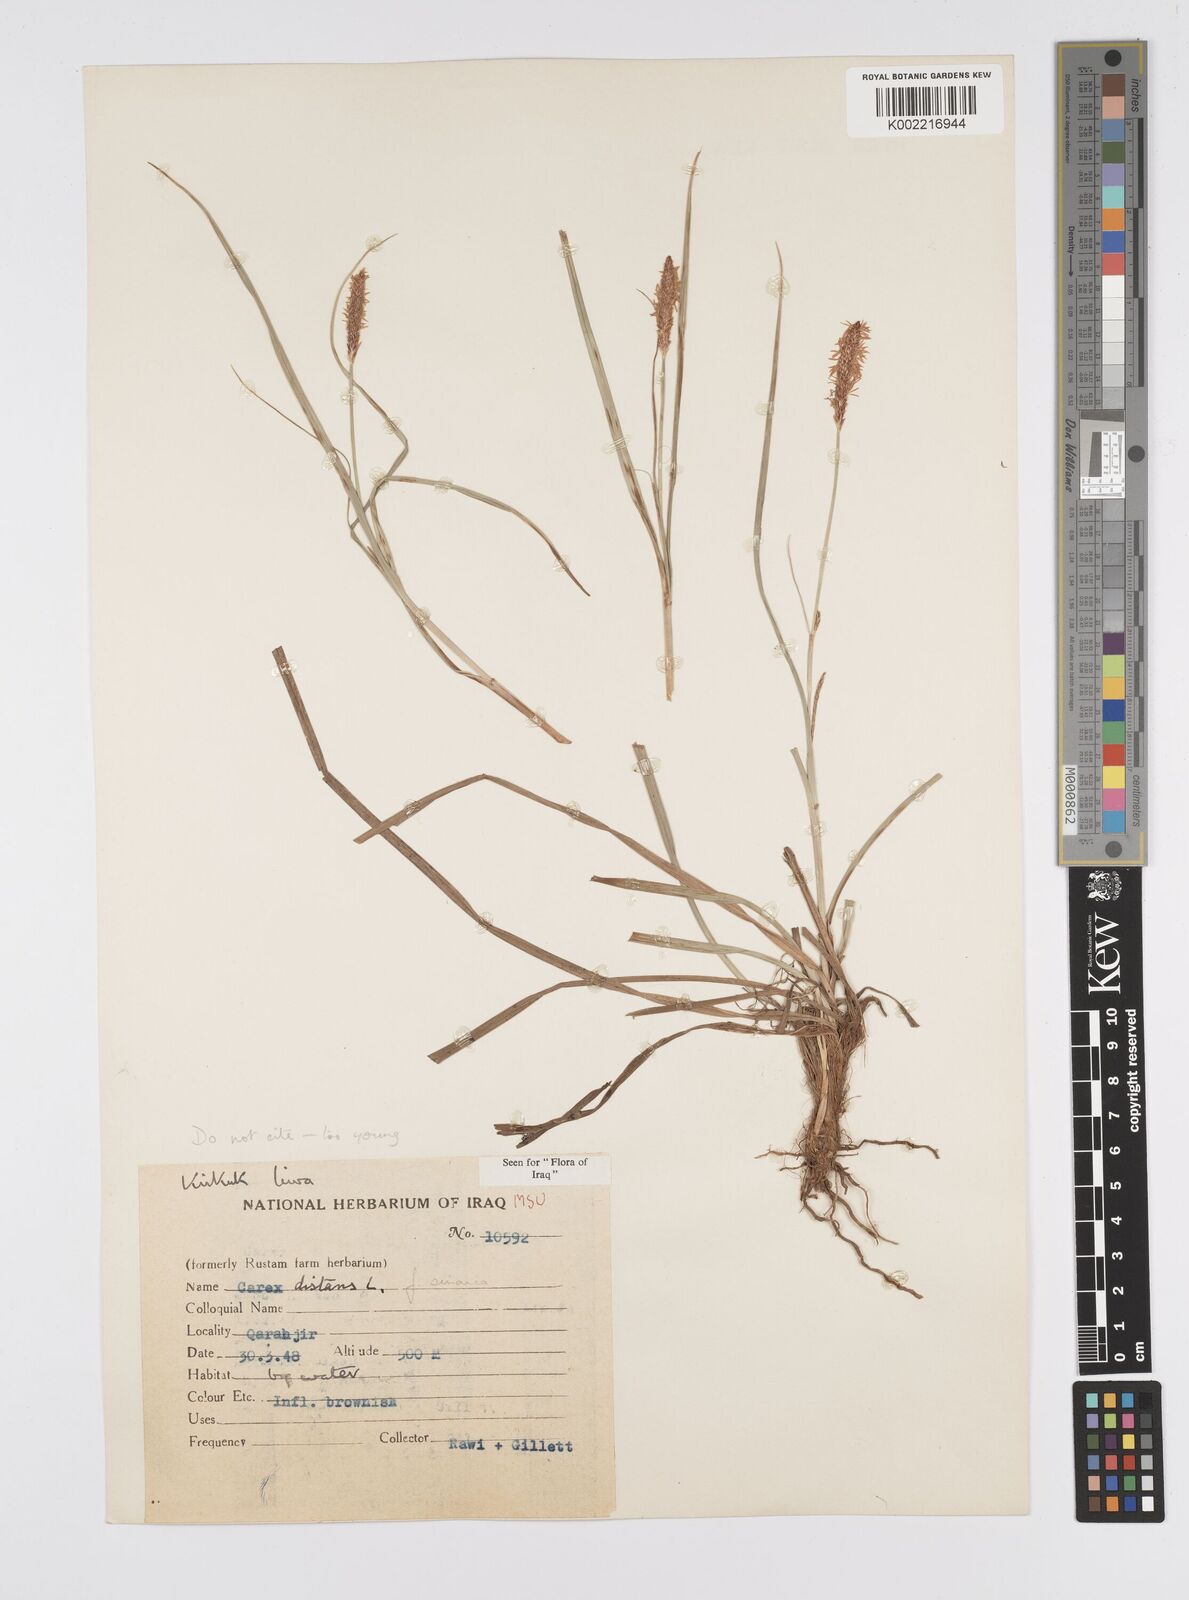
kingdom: Plantae
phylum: Tracheophyta
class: Liliopsida
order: Poales
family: Cyperaceae
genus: Carex
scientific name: Carex distans
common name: Distant sedge
